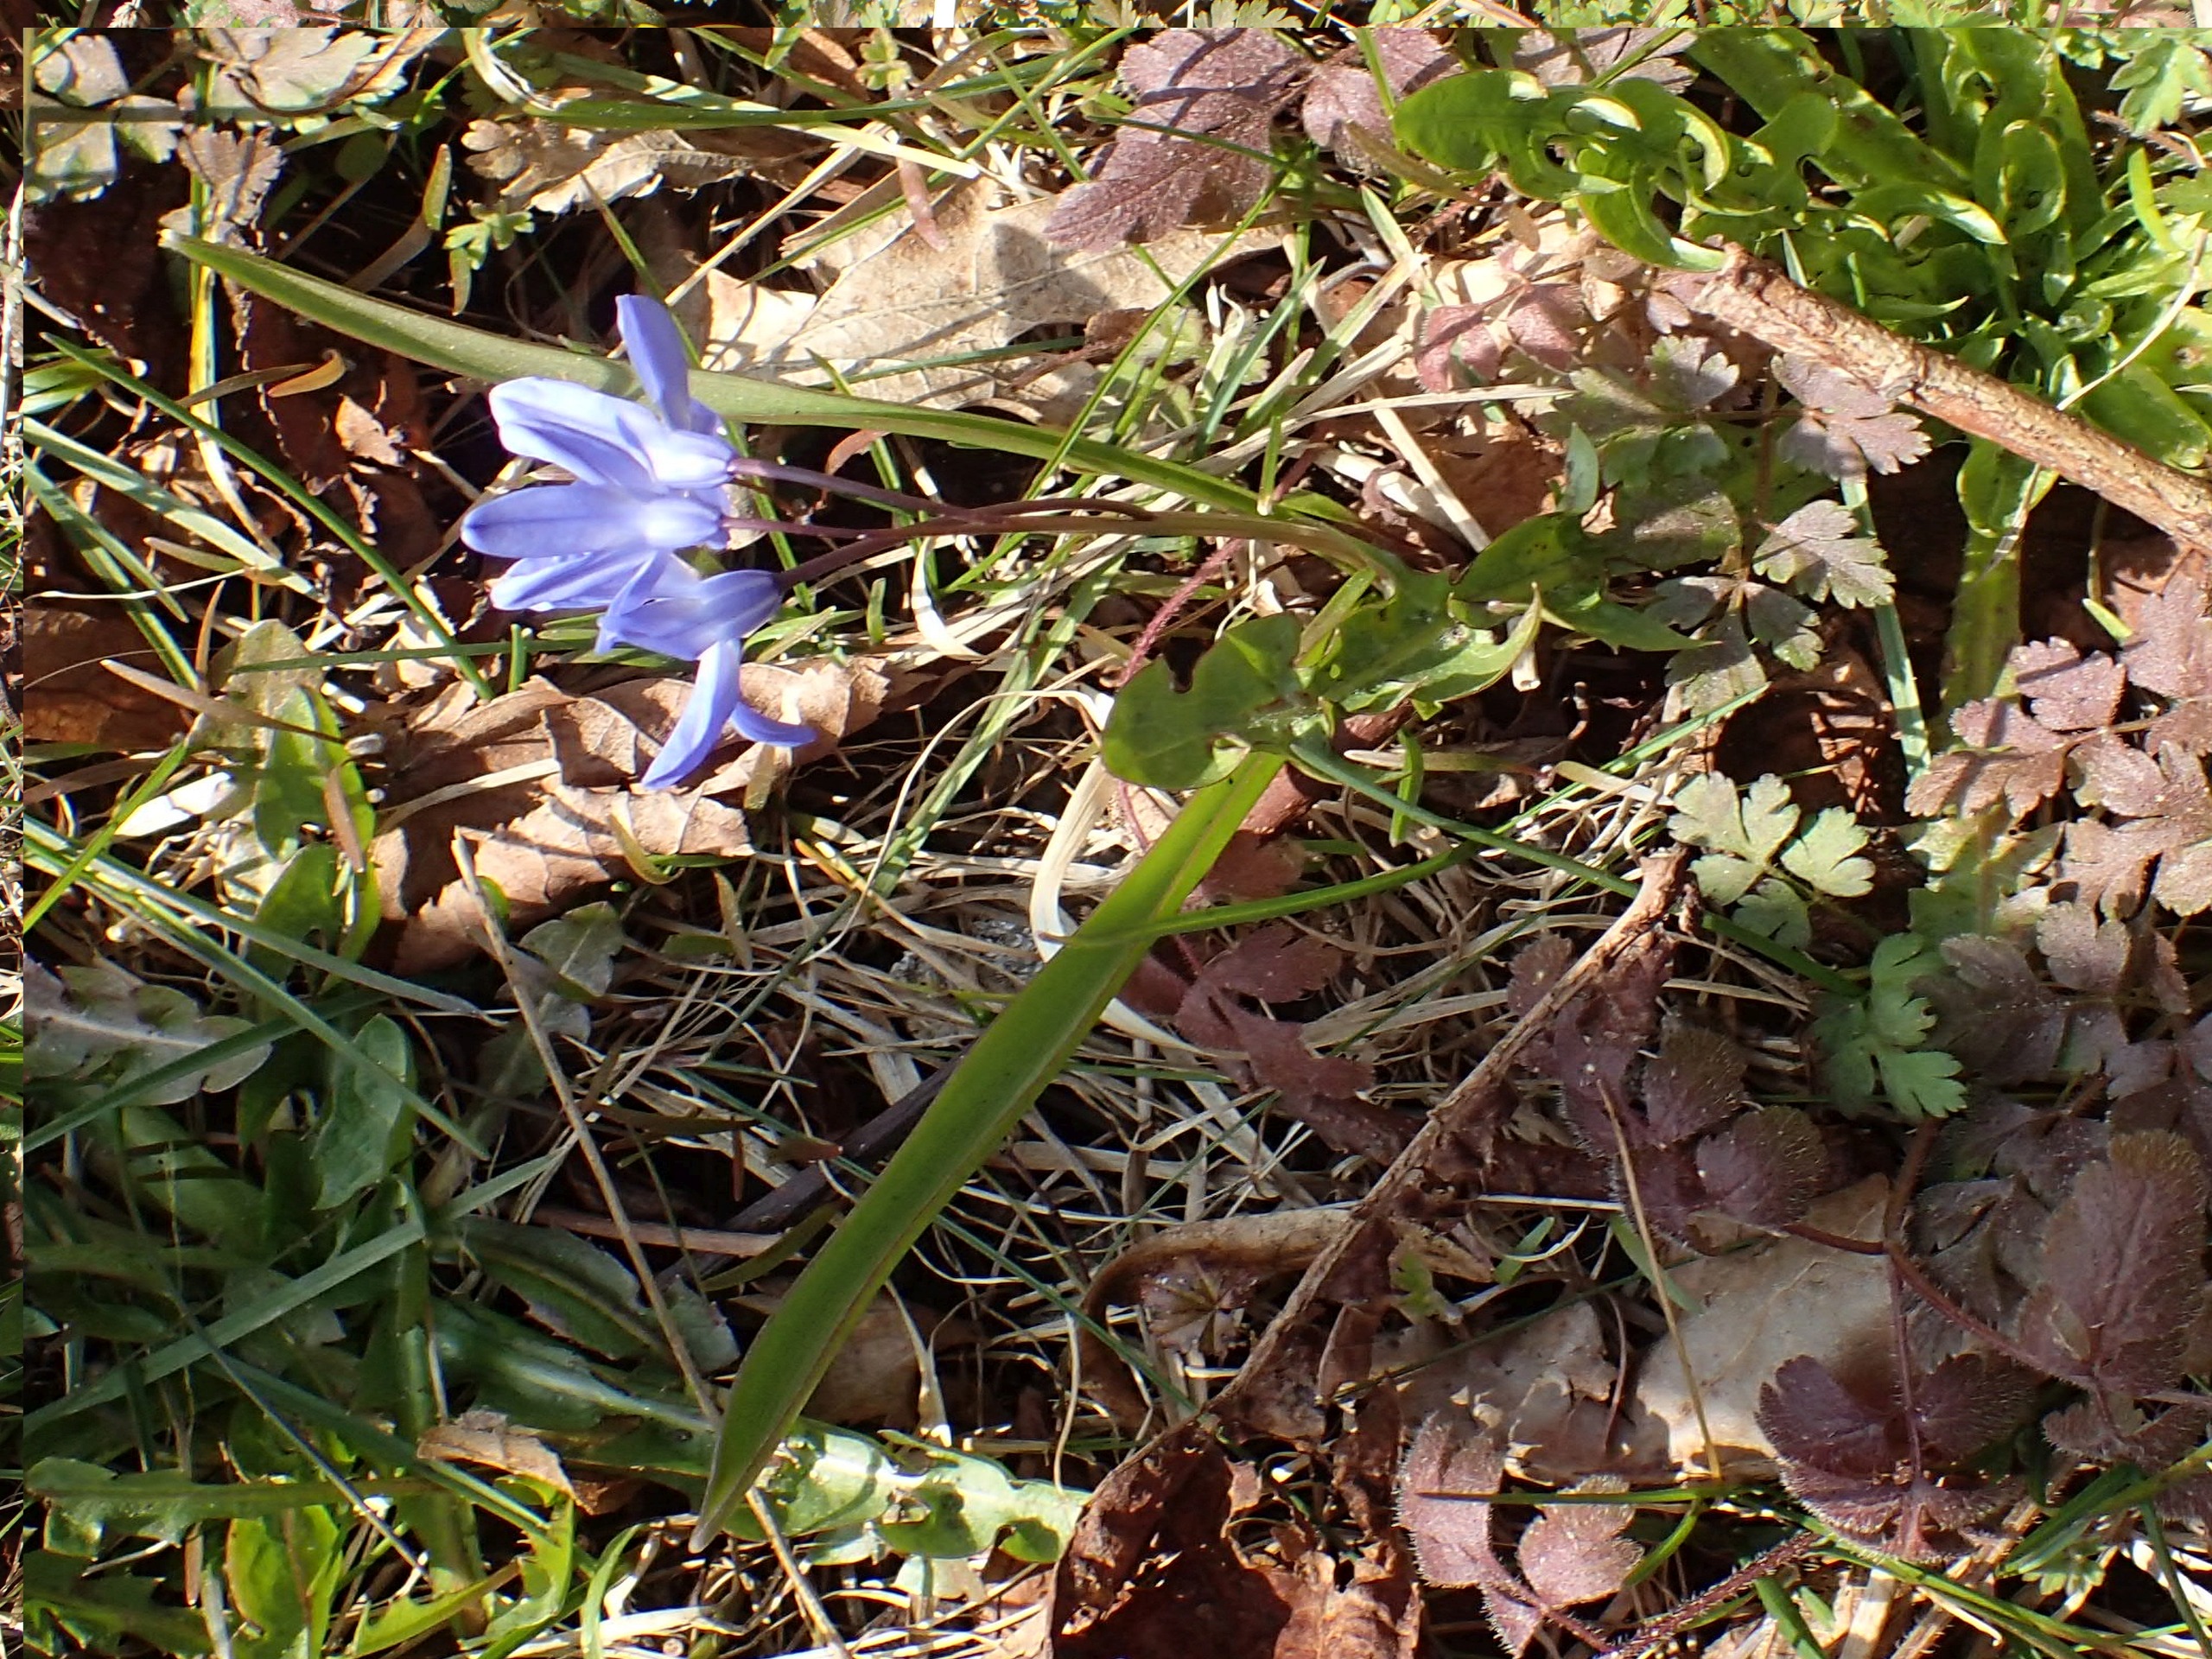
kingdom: Plantae
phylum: Tracheophyta
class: Liliopsida
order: Asparagales
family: Asparagaceae
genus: Scilla
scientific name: Scilla forbesii
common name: Almindelig snepryd
